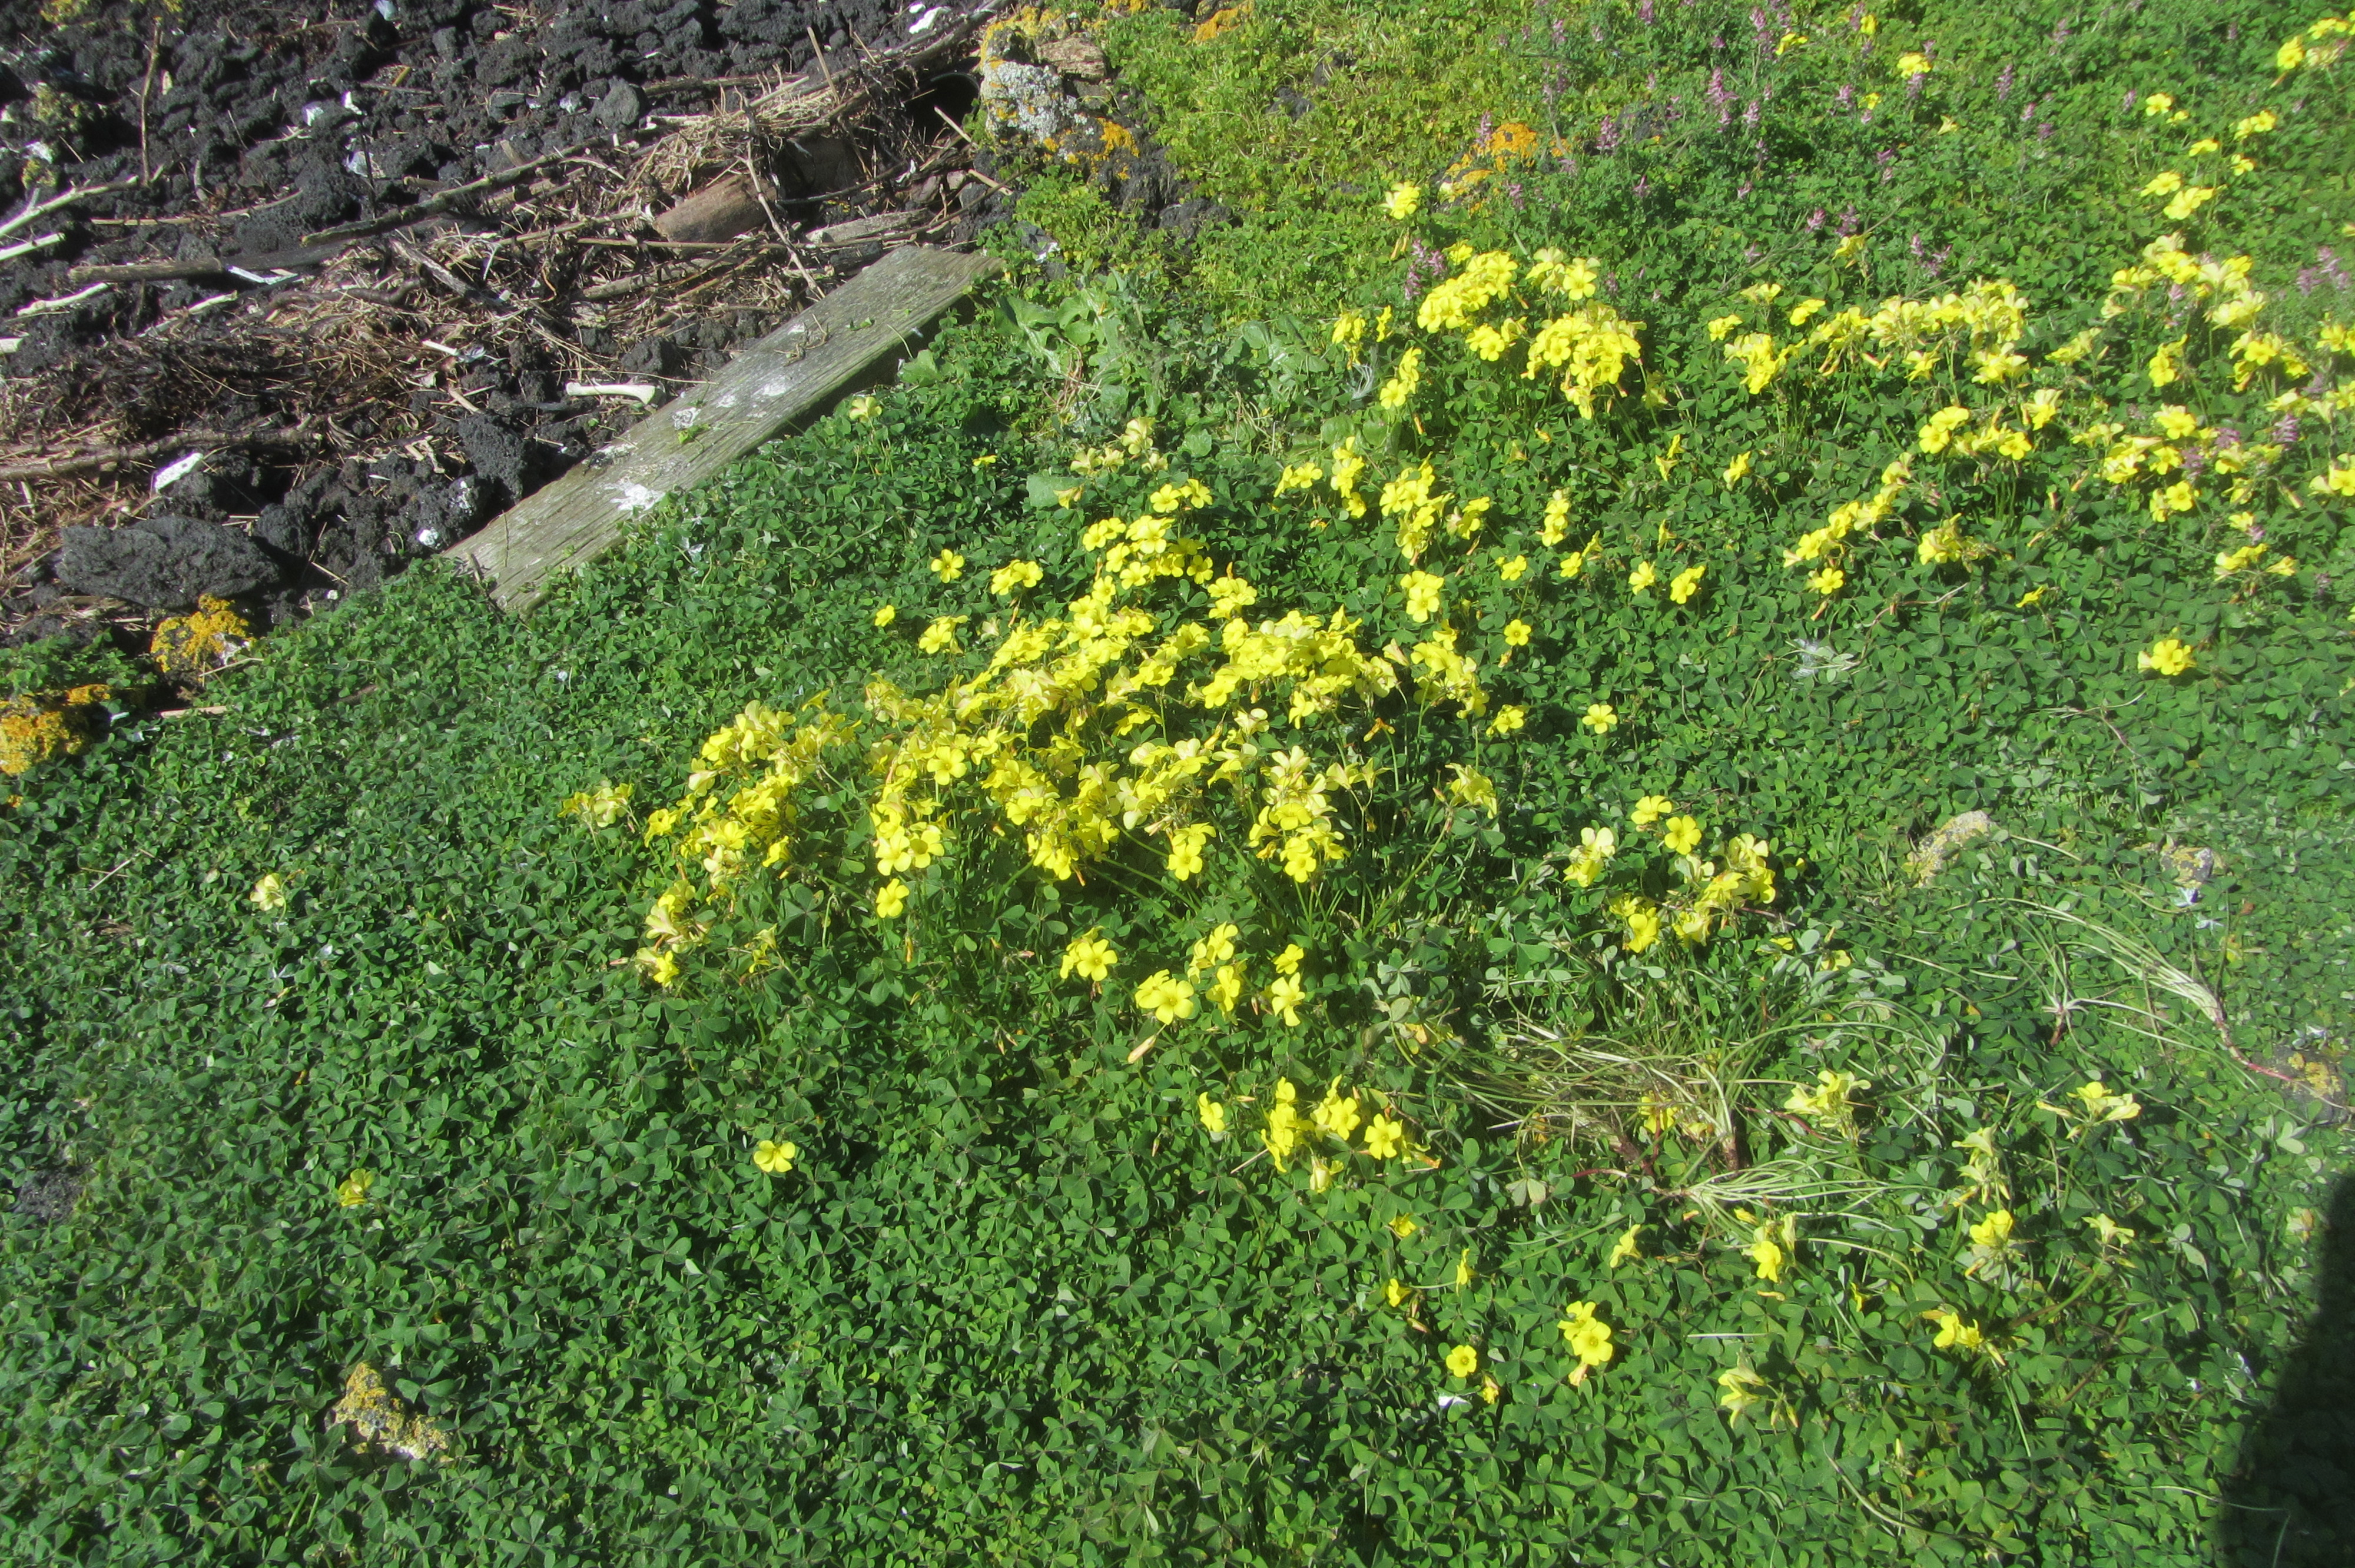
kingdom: Plantae
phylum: Tracheophyta
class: Magnoliopsida
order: Asterales
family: Asteraceae
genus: Microseris
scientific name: Microseris scapigera
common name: Yam daisy
